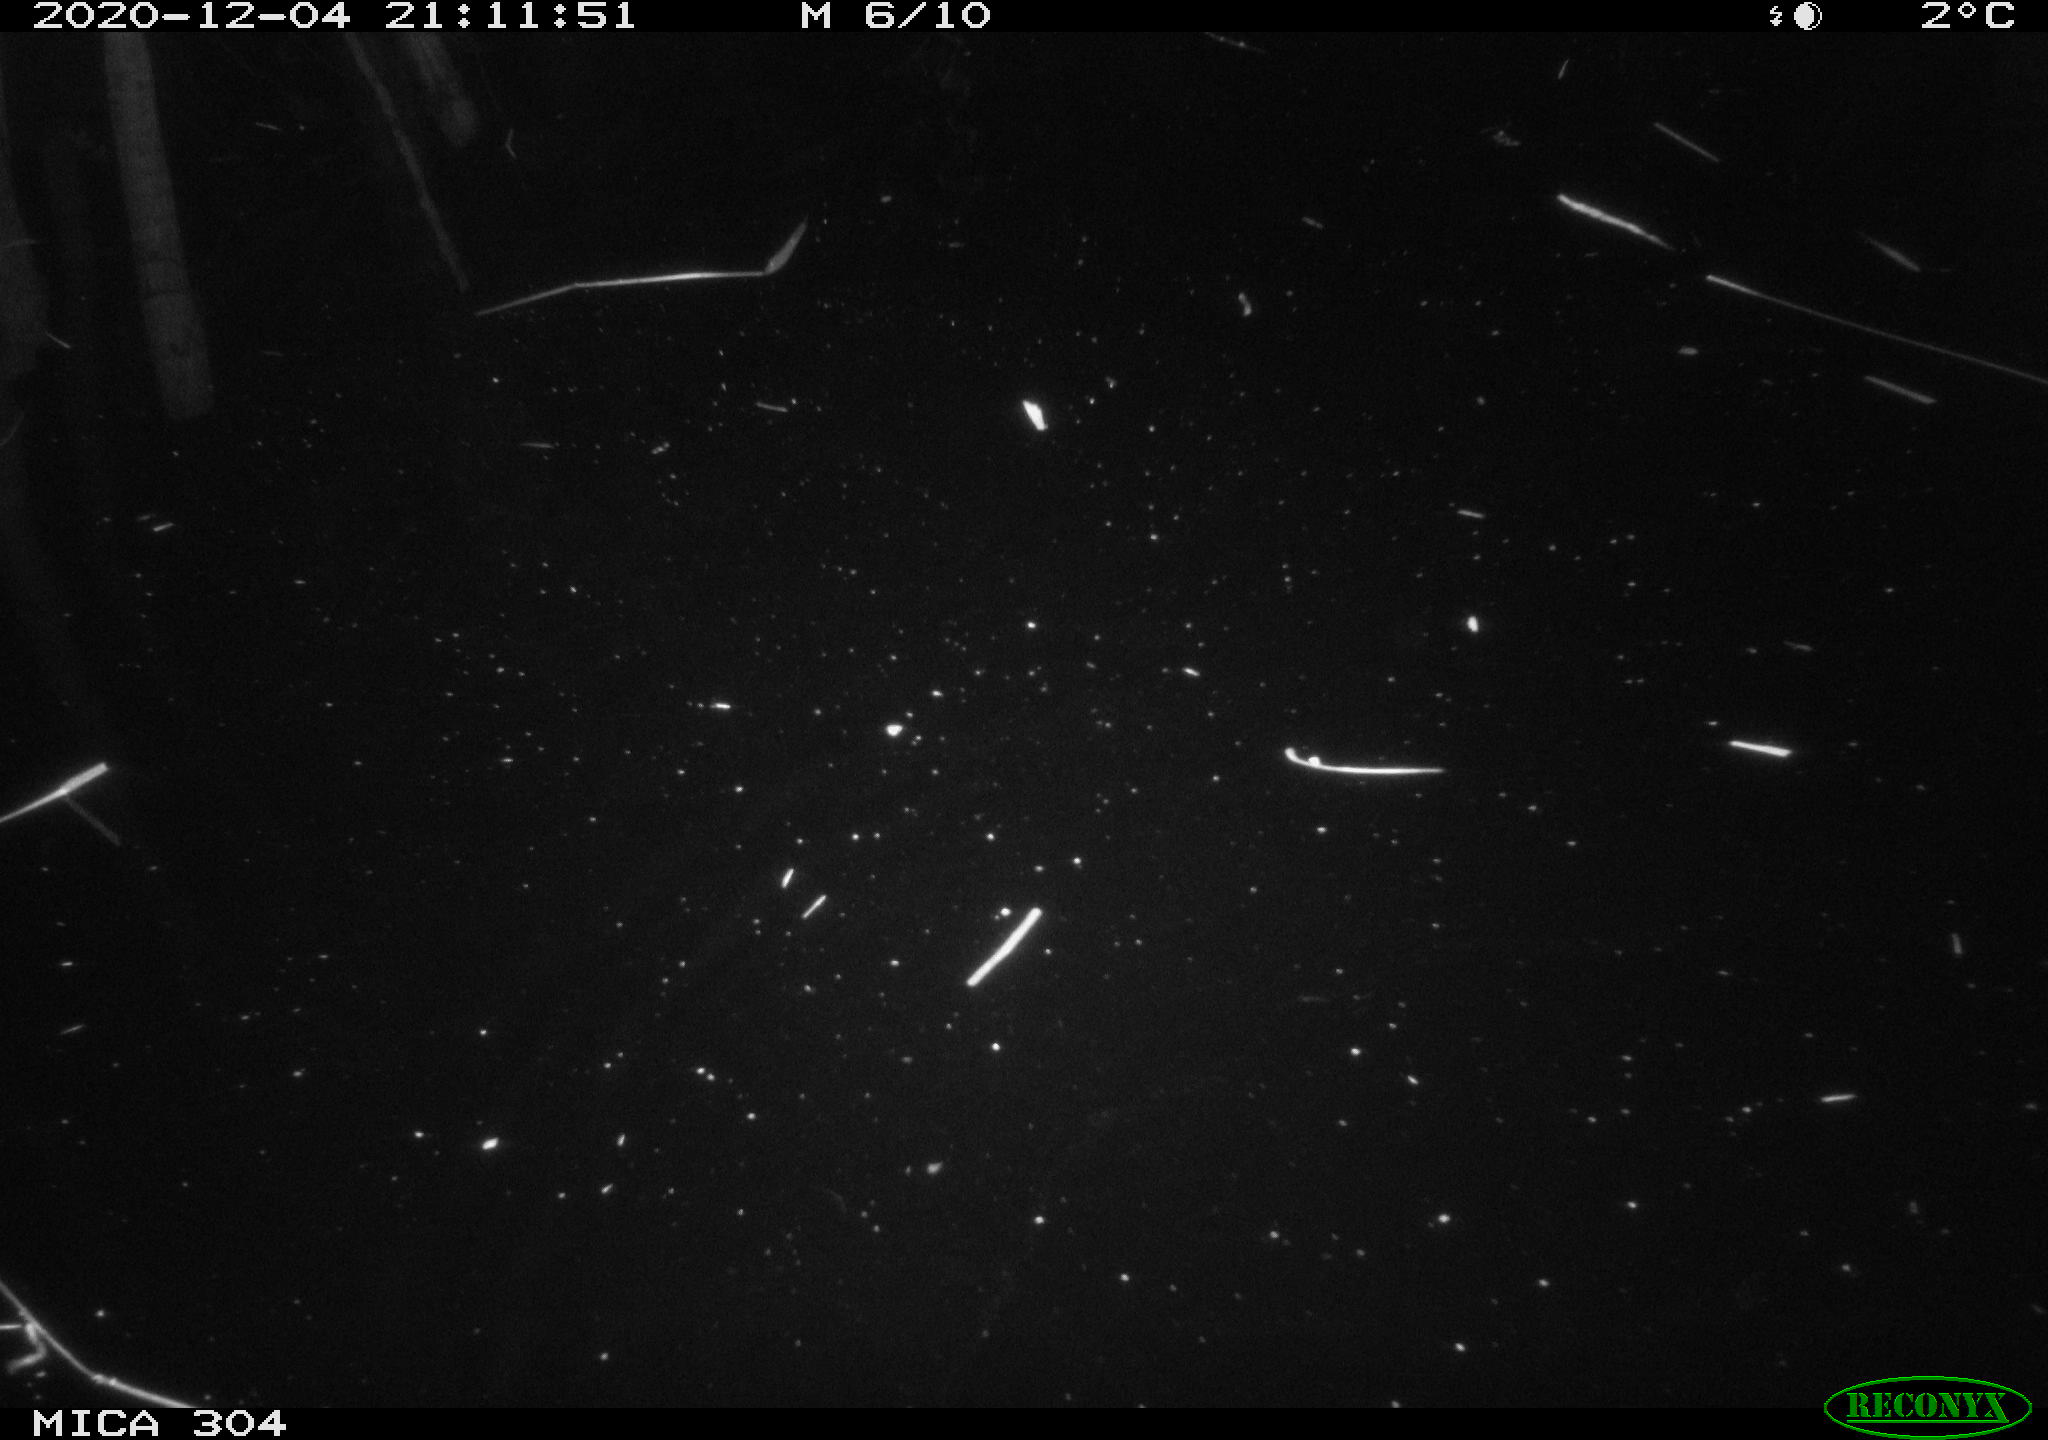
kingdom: Animalia
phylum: Chordata
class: Mammalia
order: Rodentia
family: Muridae
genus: Rattus
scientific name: Rattus norvegicus
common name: Brown rat
